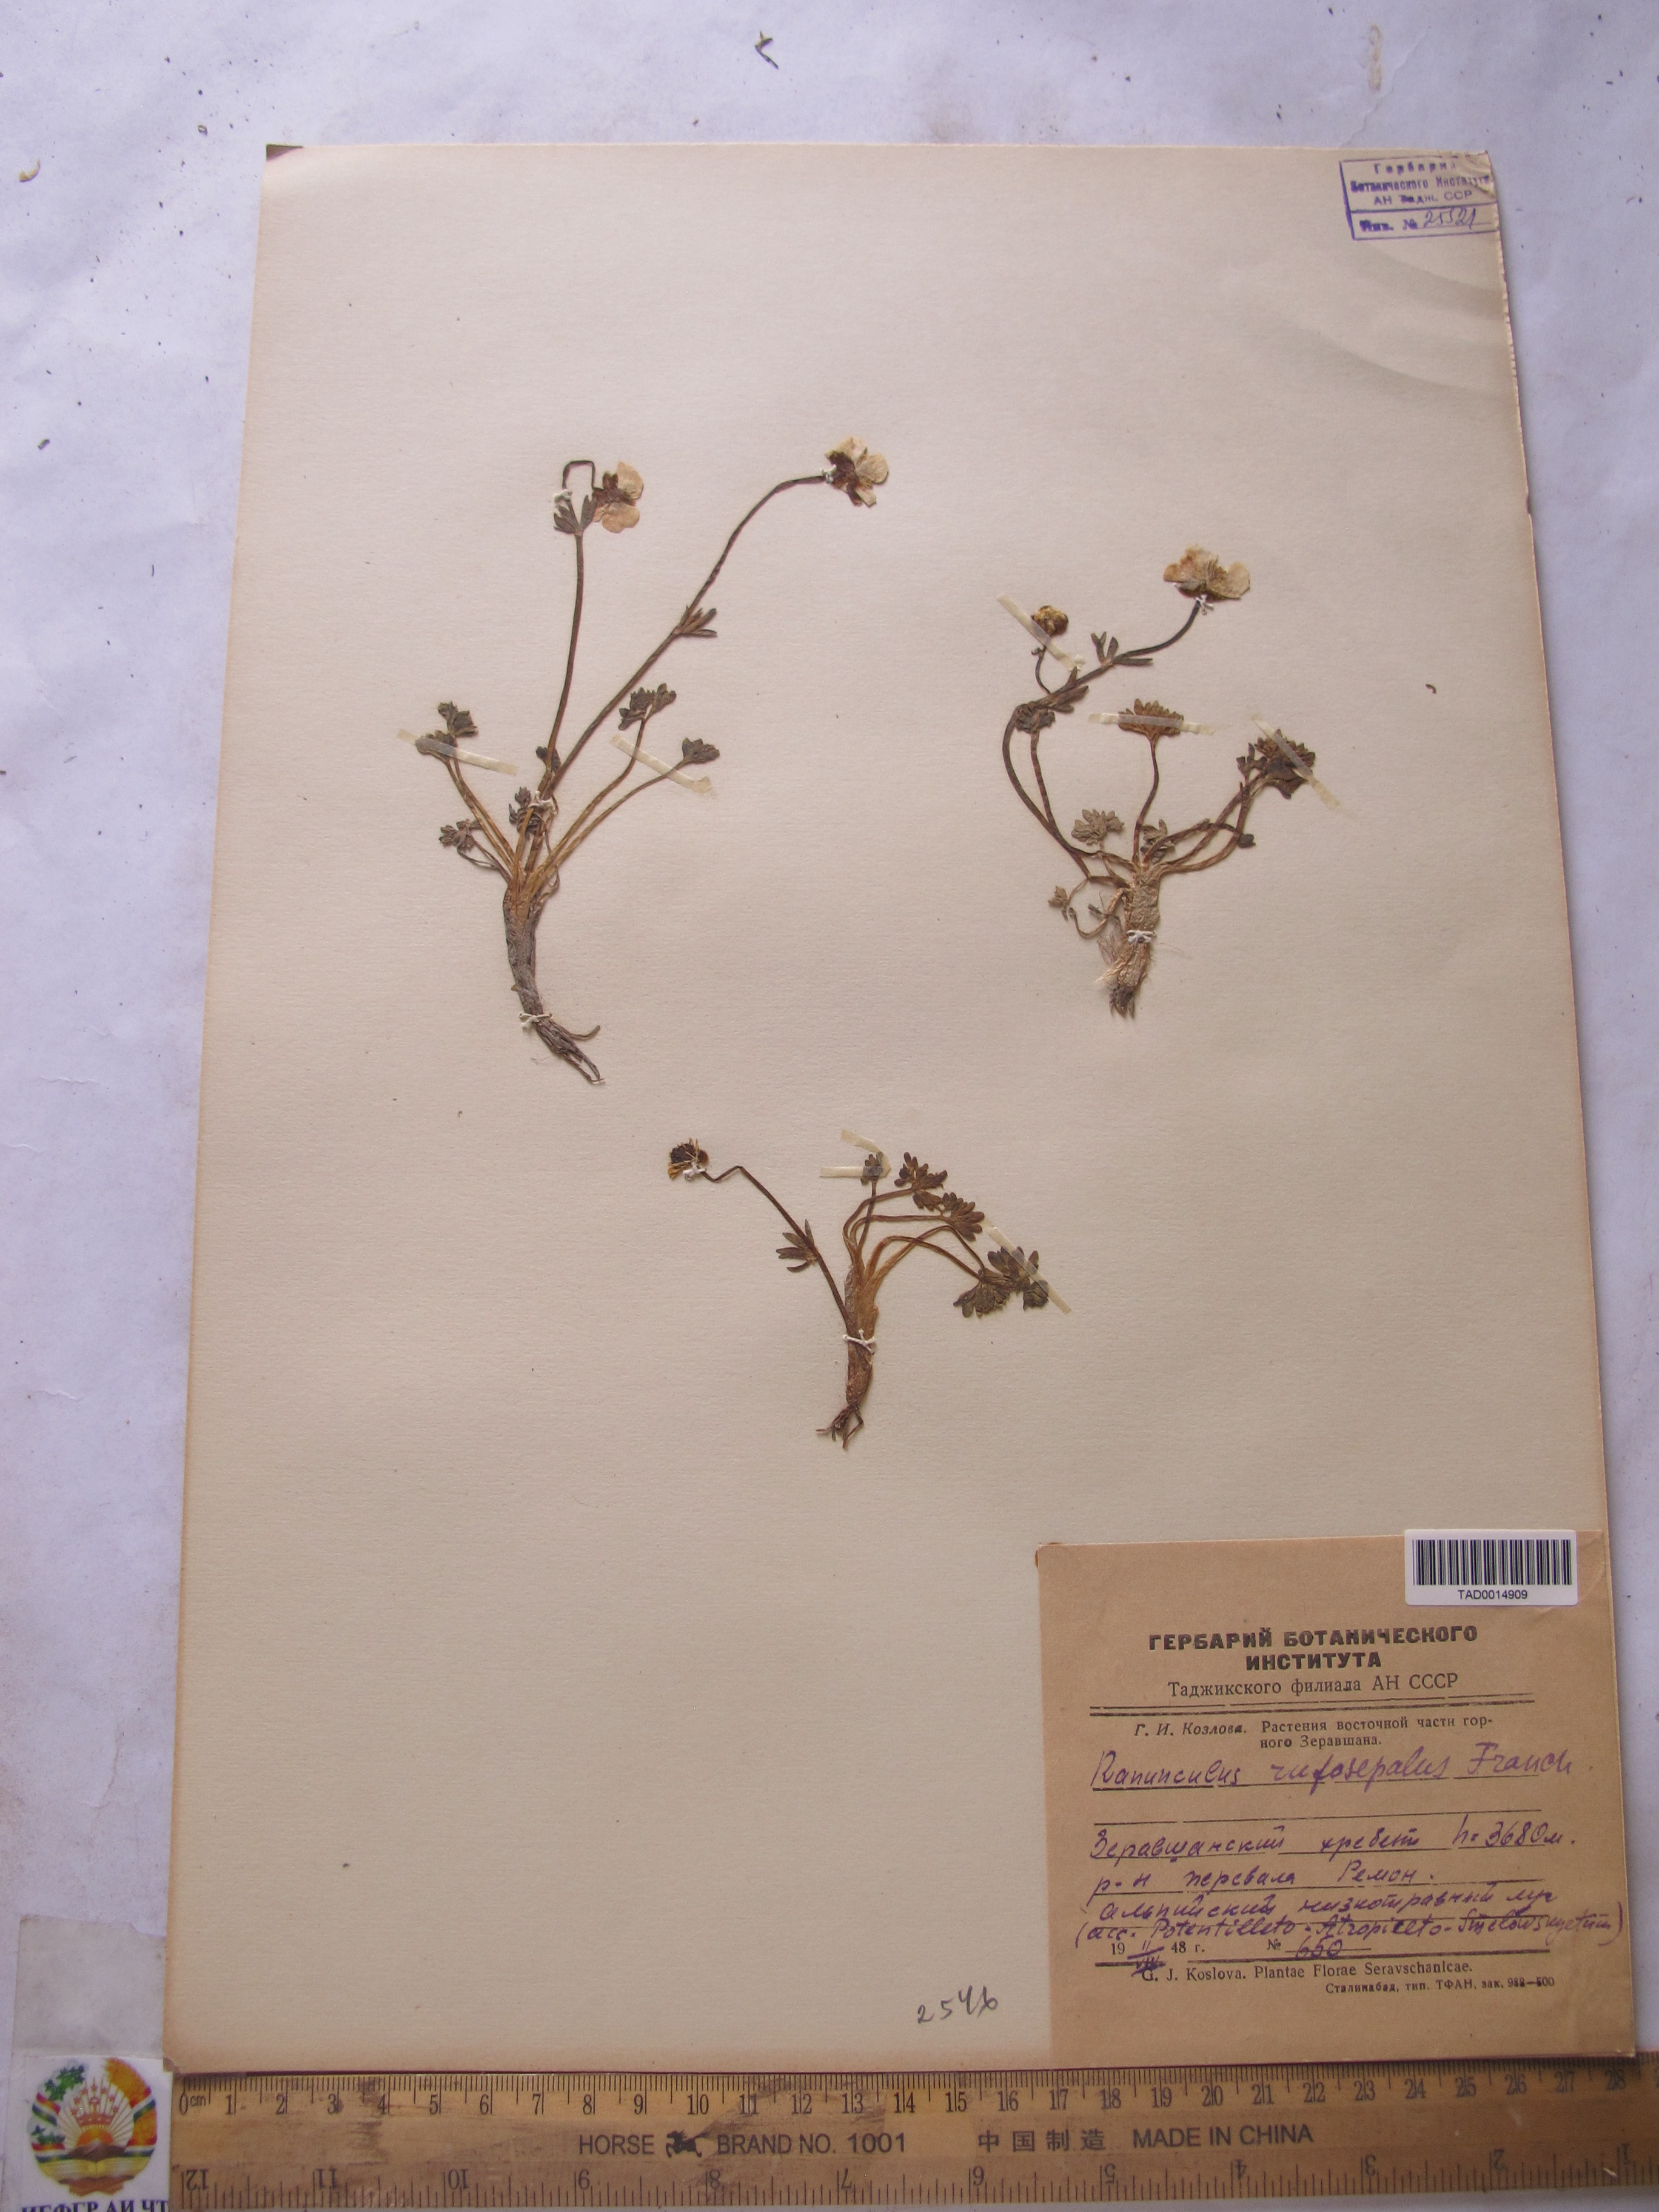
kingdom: Plantae
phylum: Tracheophyta
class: Magnoliopsida
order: Ranunculales
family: Ranunculaceae
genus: Ranunculus
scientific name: Ranunculus rufosepalus
